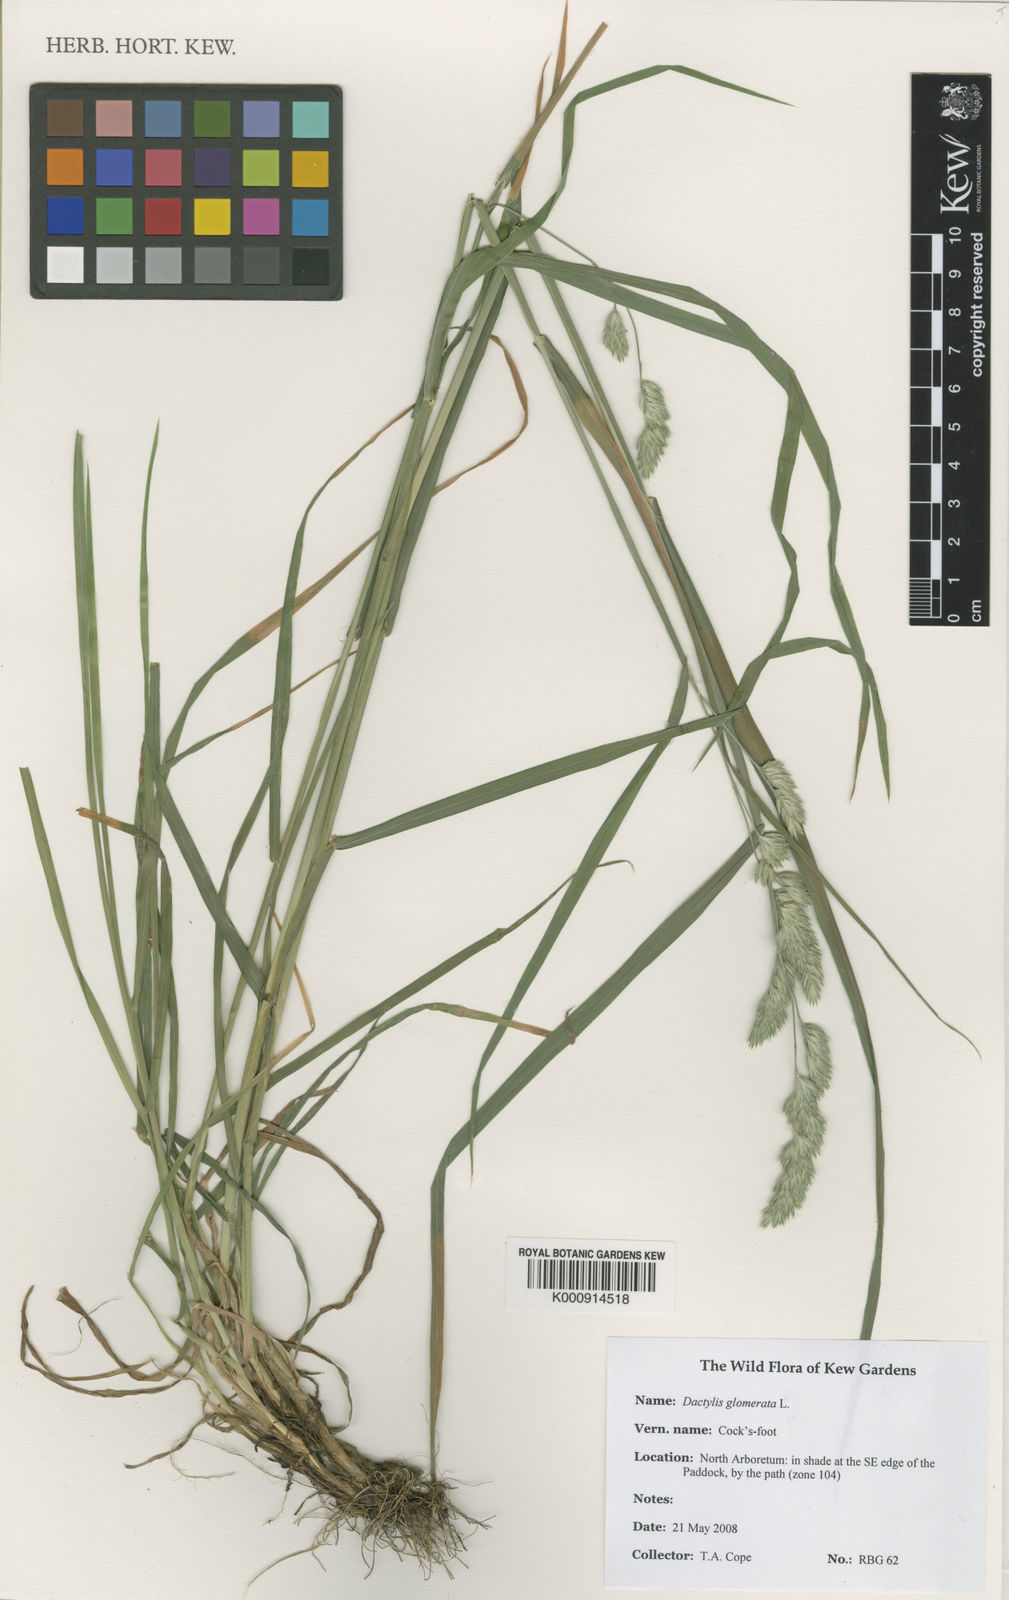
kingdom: Plantae
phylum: Tracheophyta
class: Liliopsida
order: Poales
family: Poaceae
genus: Dactylis
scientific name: Dactylis glomerata
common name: Orchardgrass
